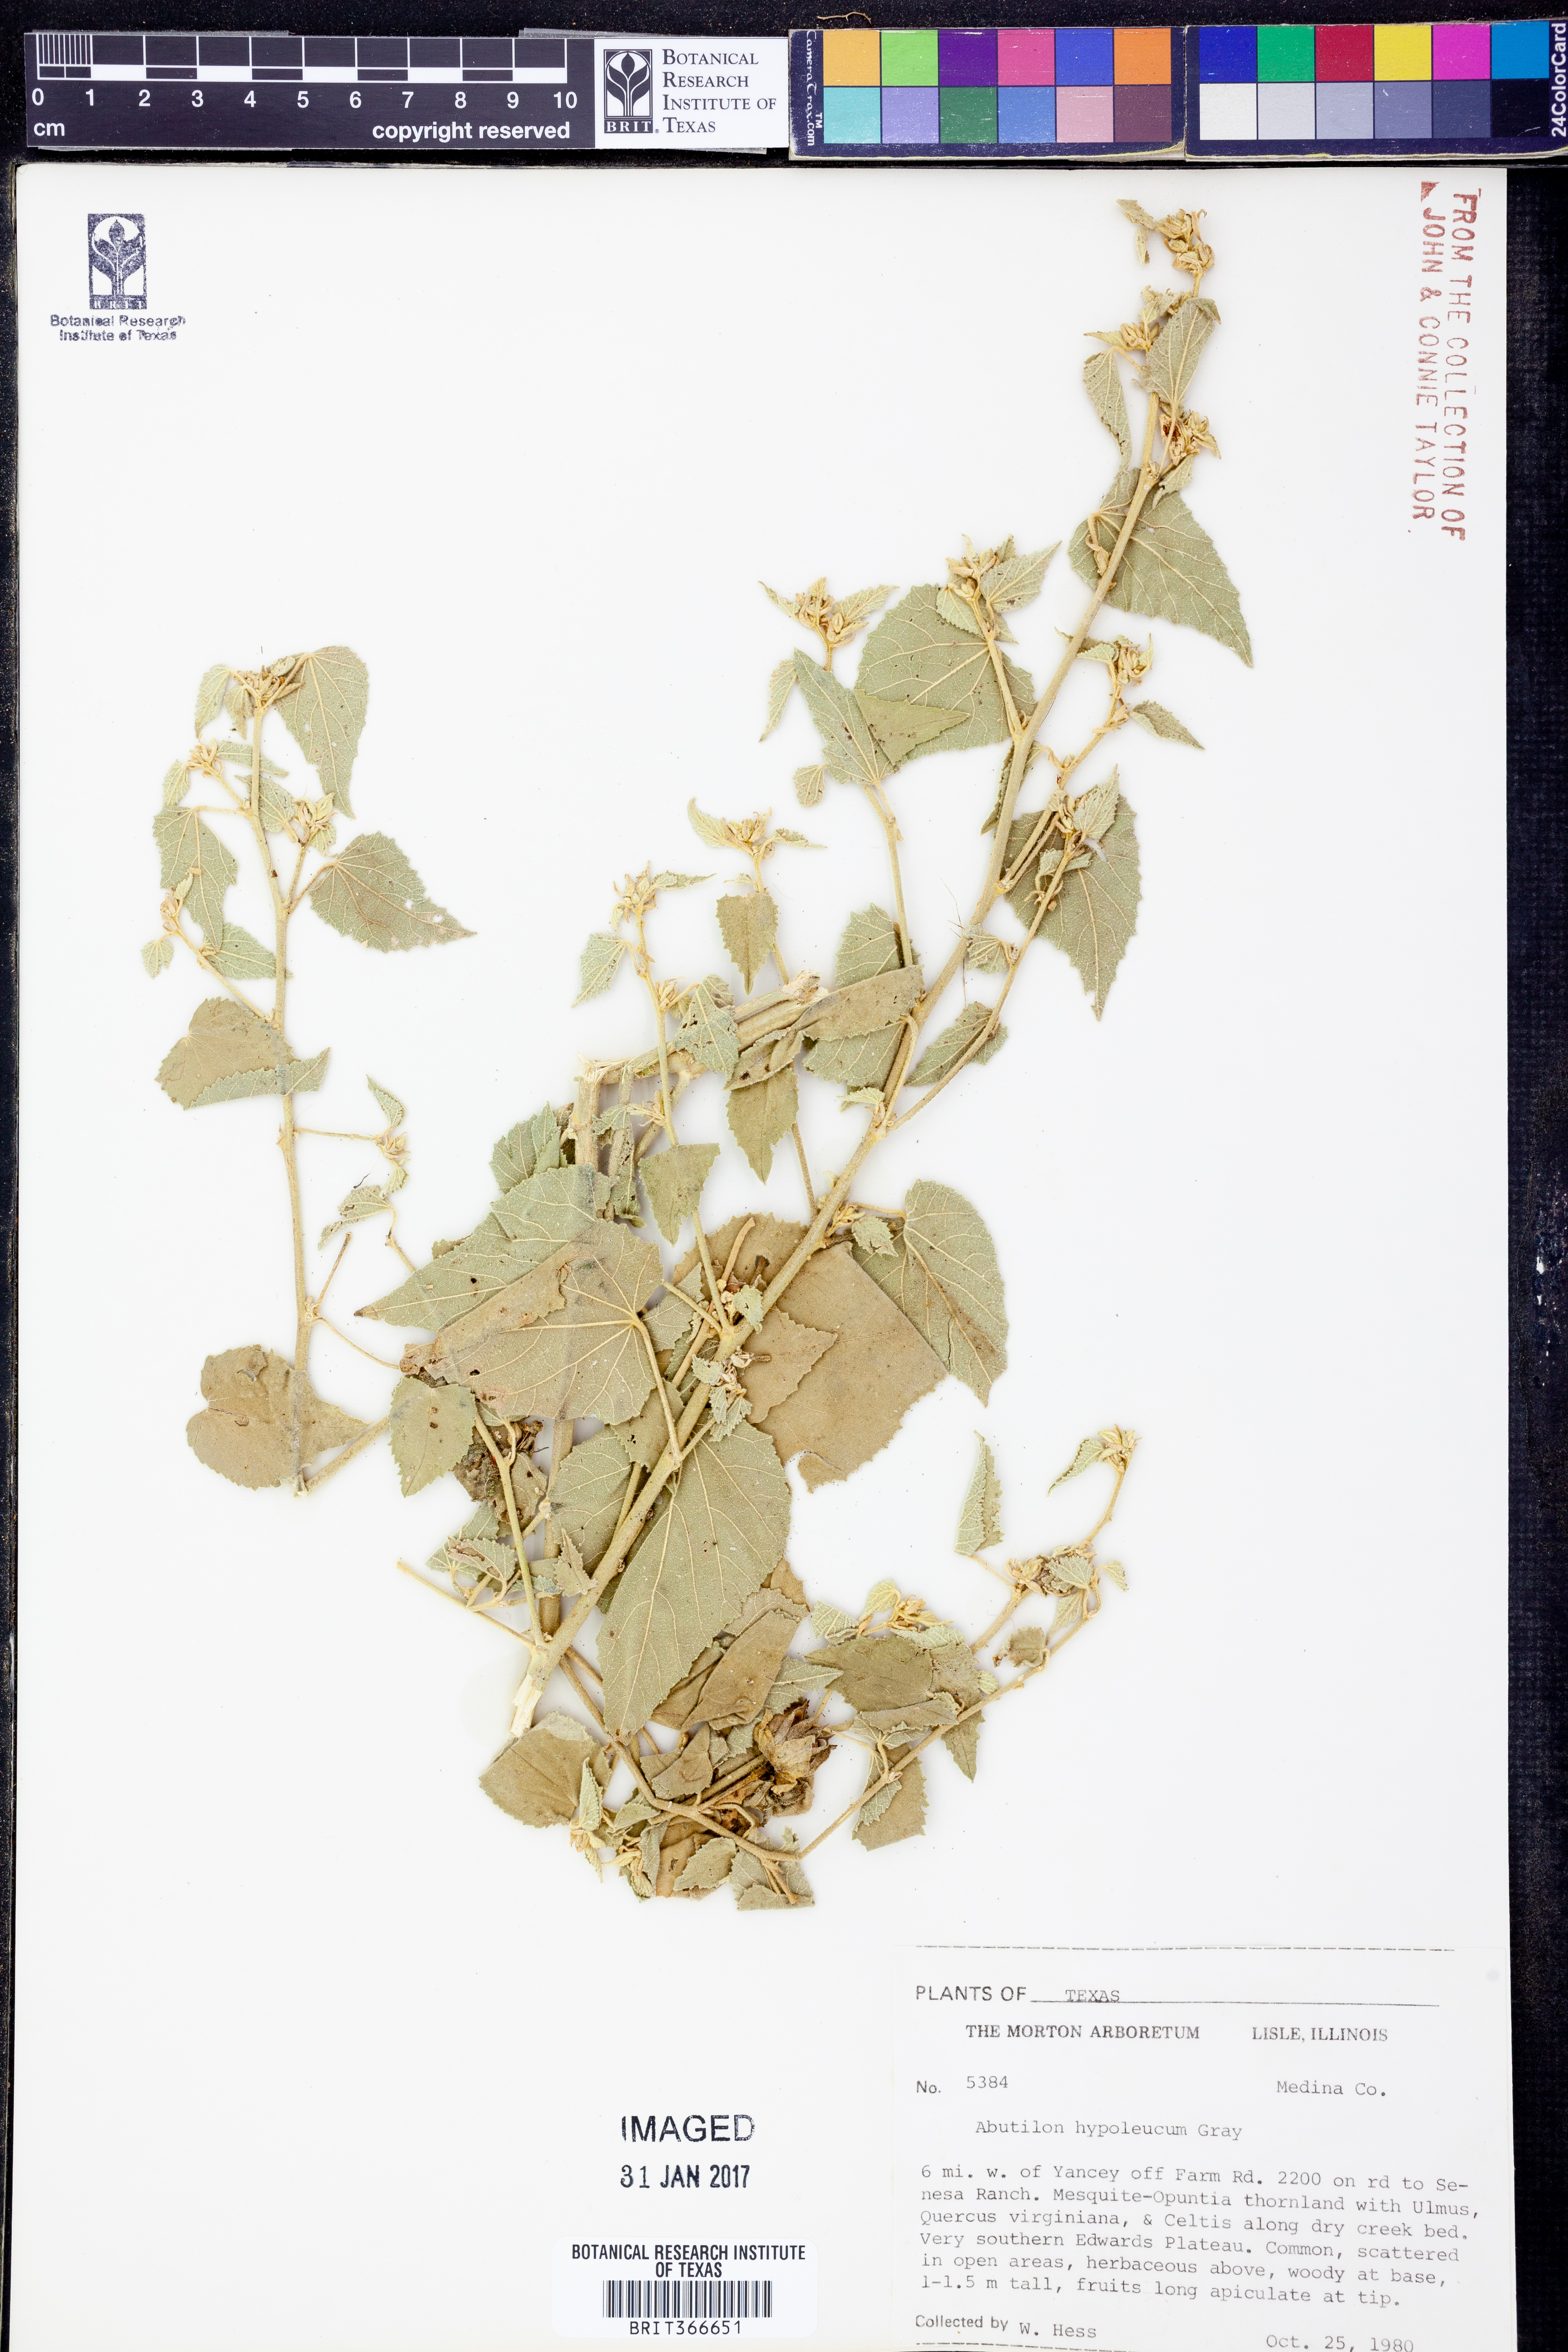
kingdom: Plantae
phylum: Tracheophyta
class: Magnoliopsida
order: Malvales
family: Malvaceae
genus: Abutilon
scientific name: Abutilon hypoleucum
